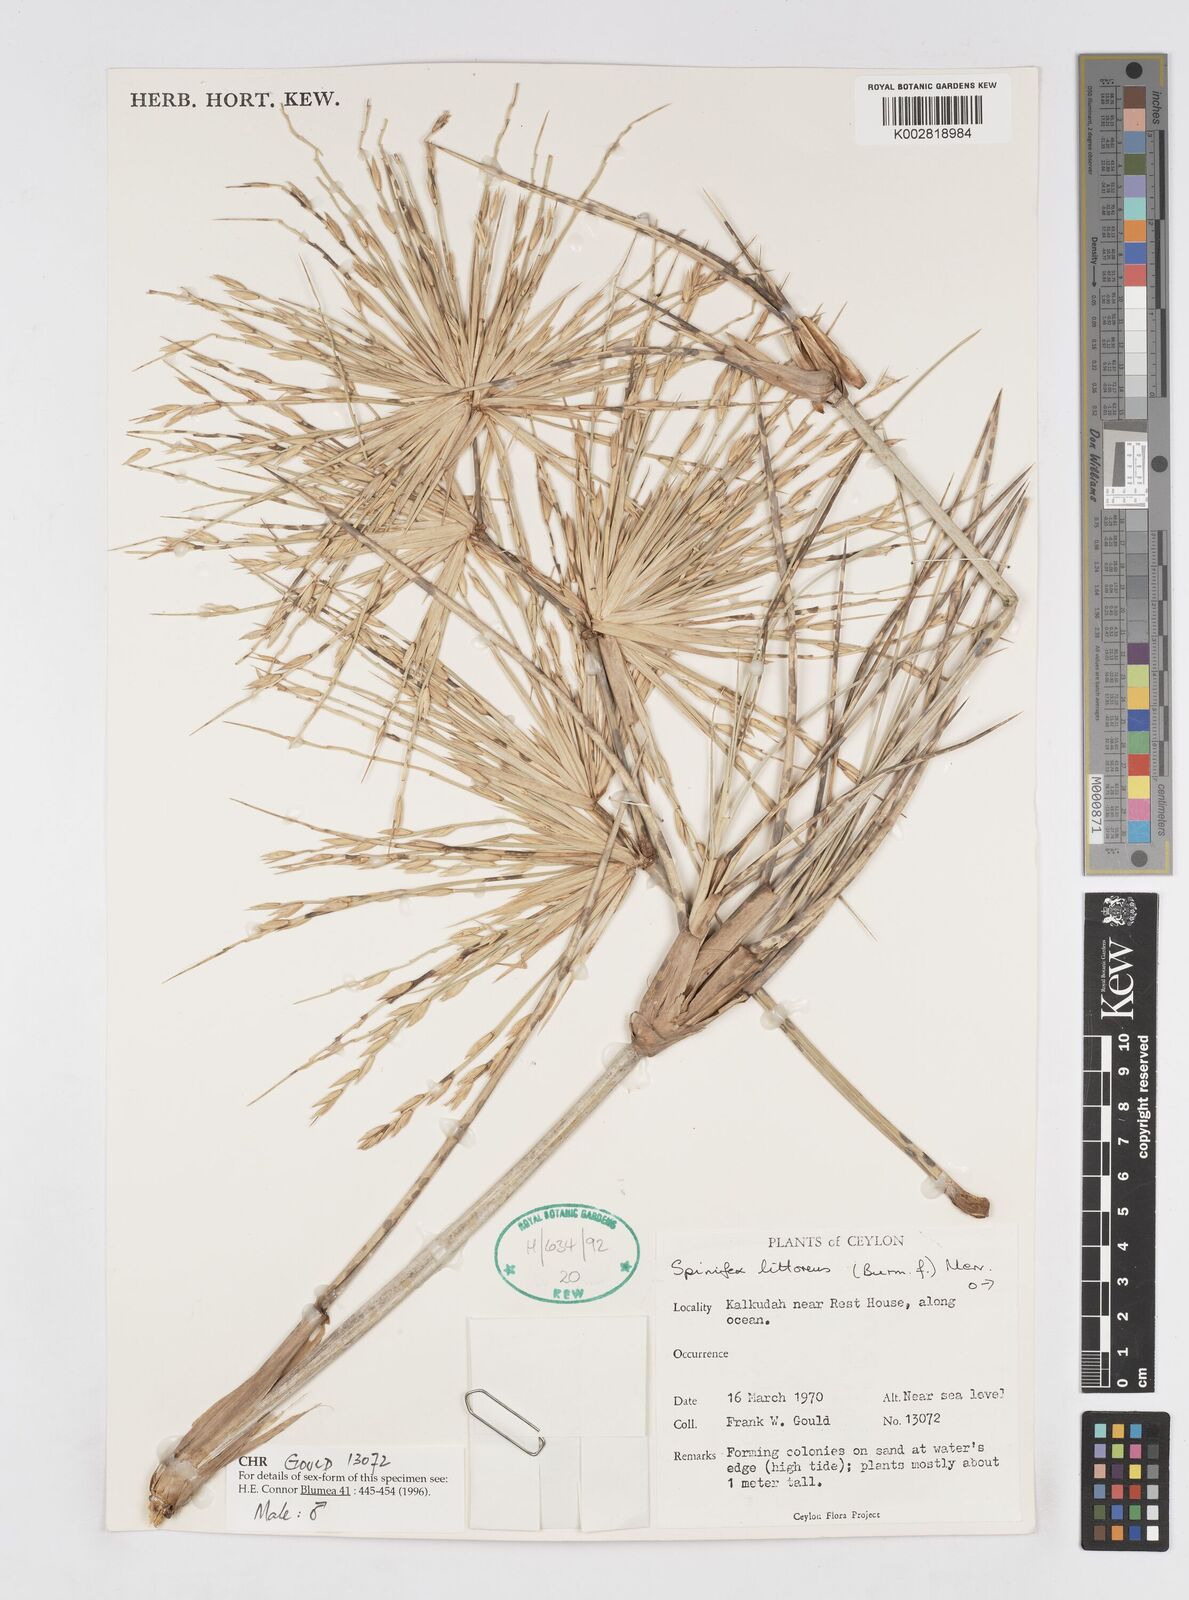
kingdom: Plantae
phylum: Tracheophyta
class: Liliopsida
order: Poales
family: Poaceae
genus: Spinifex
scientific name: Spinifex littoreus
